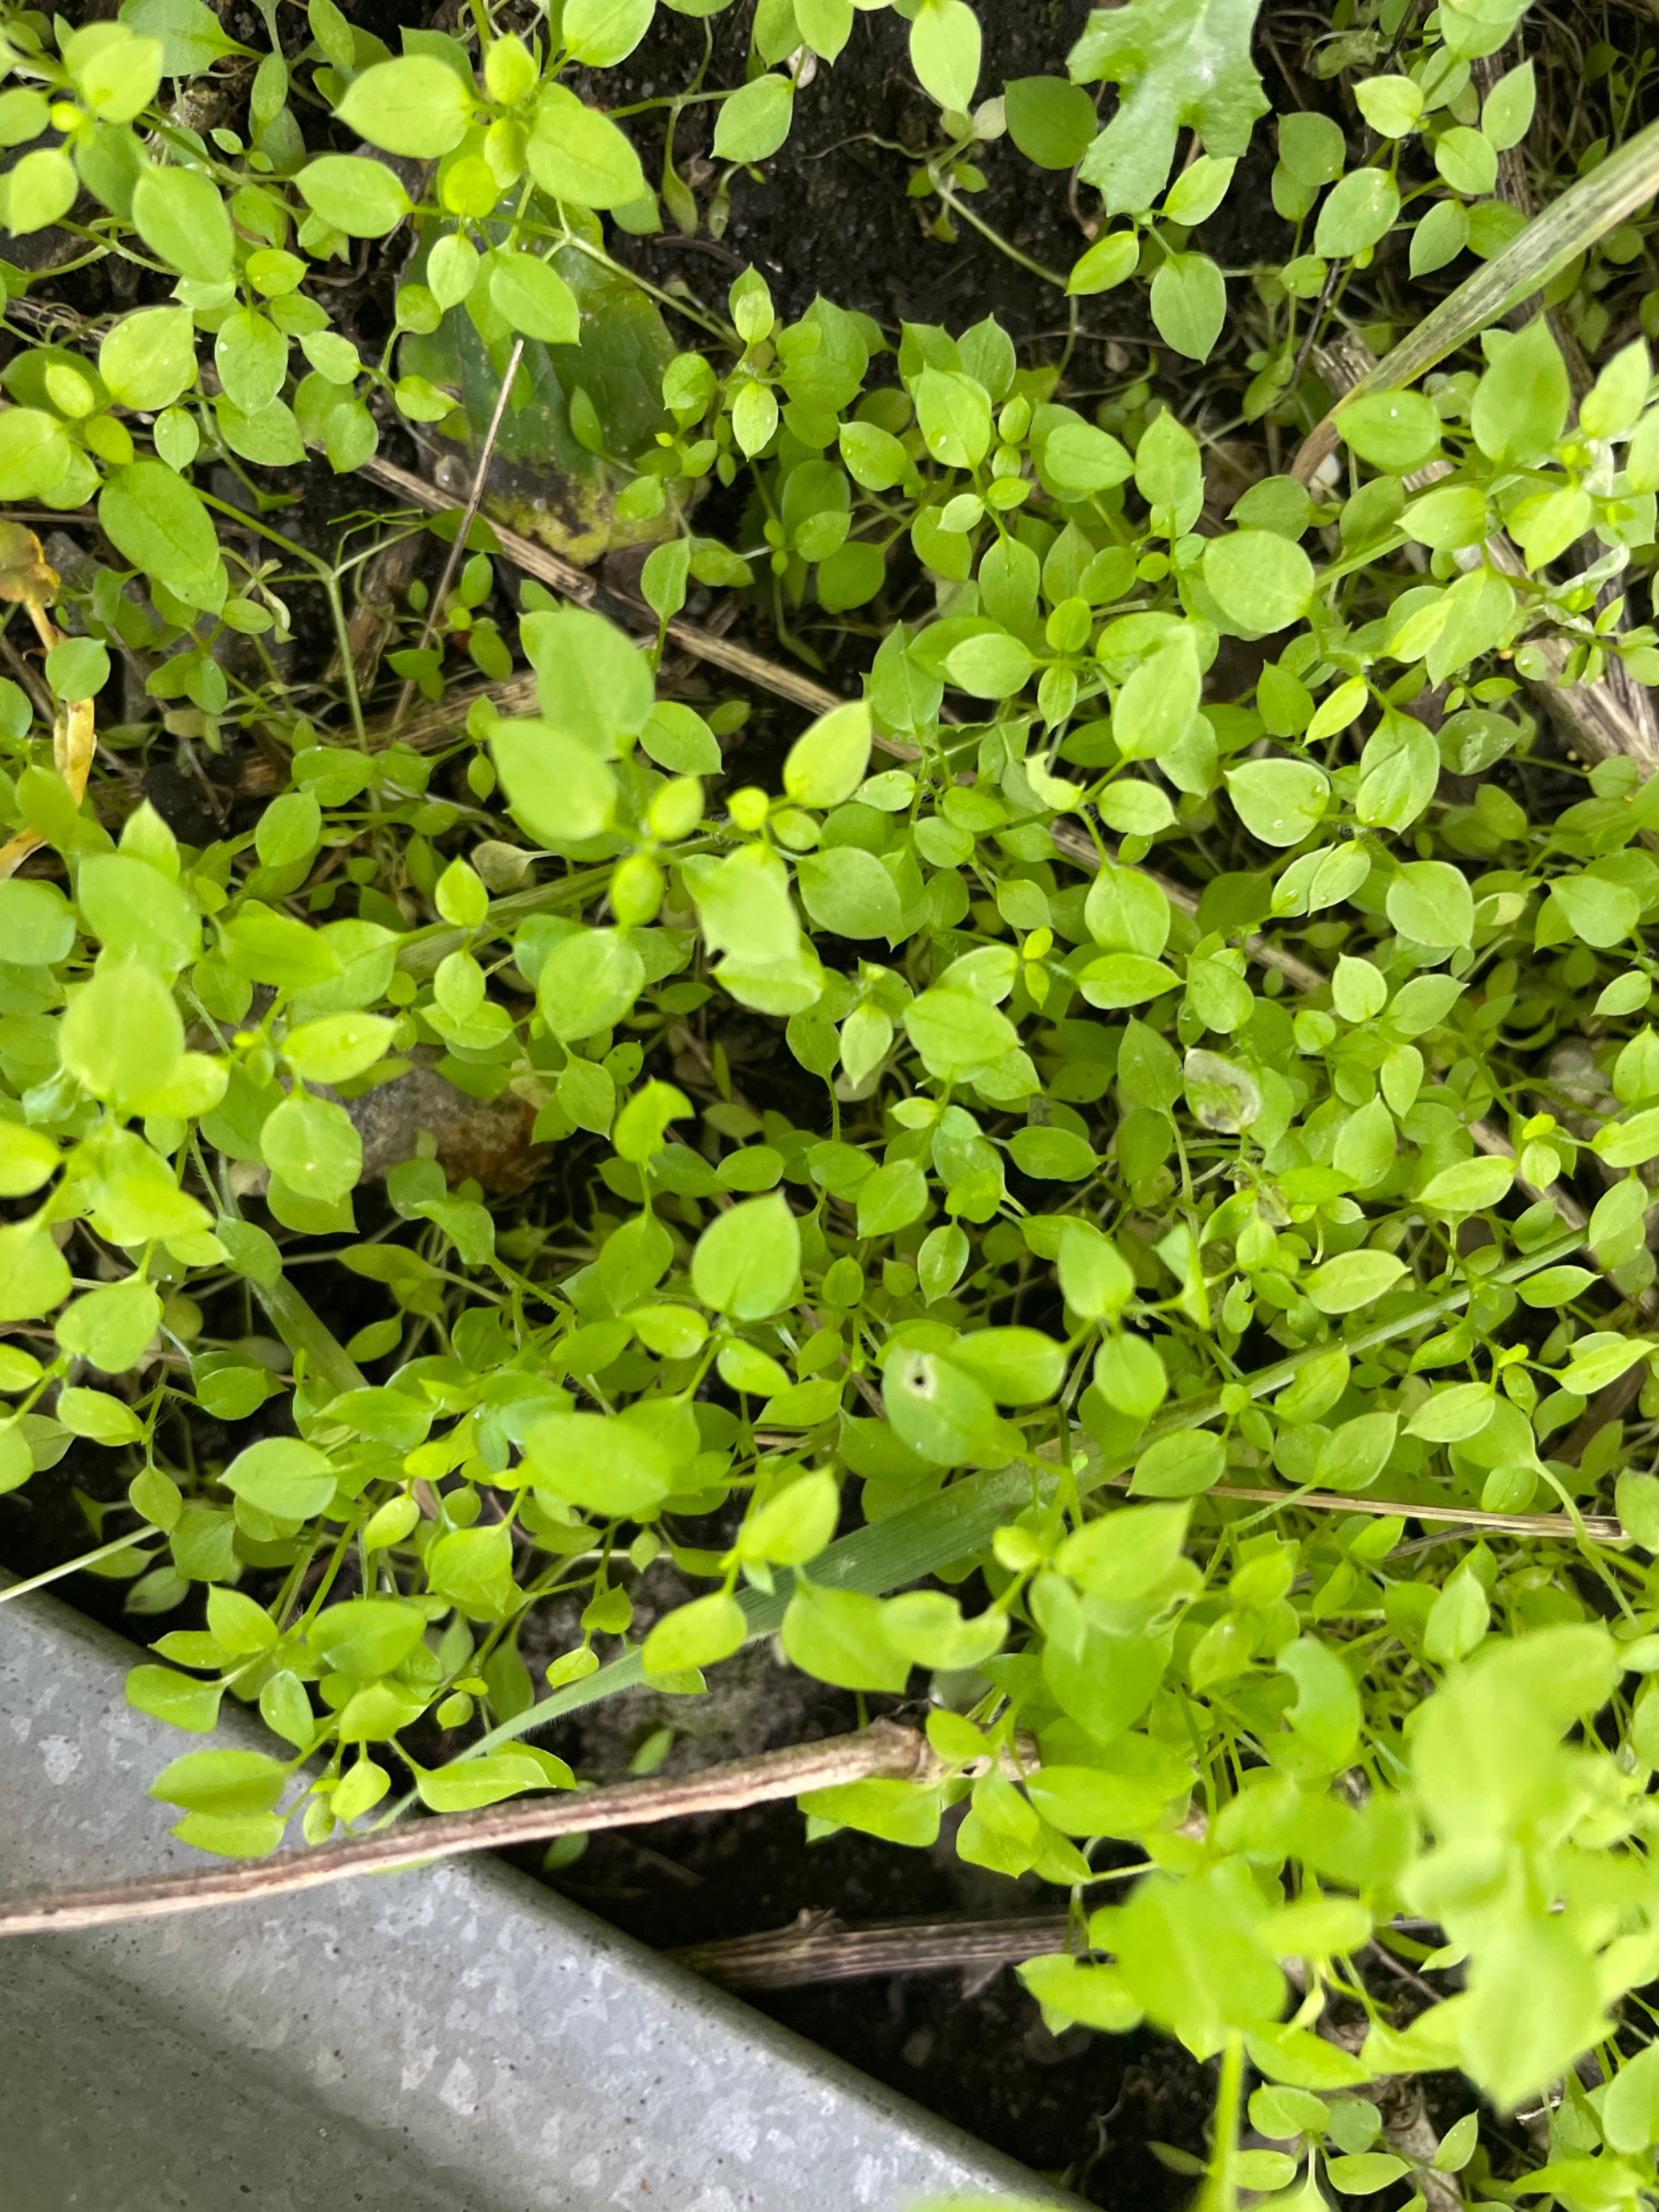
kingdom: Plantae
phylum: Tracheophyta
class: Magnoliopsida
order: Caryophyllales
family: Caryophyllaceae
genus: Stellaria
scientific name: Stellaria media
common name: Almindelig fuglegræs
